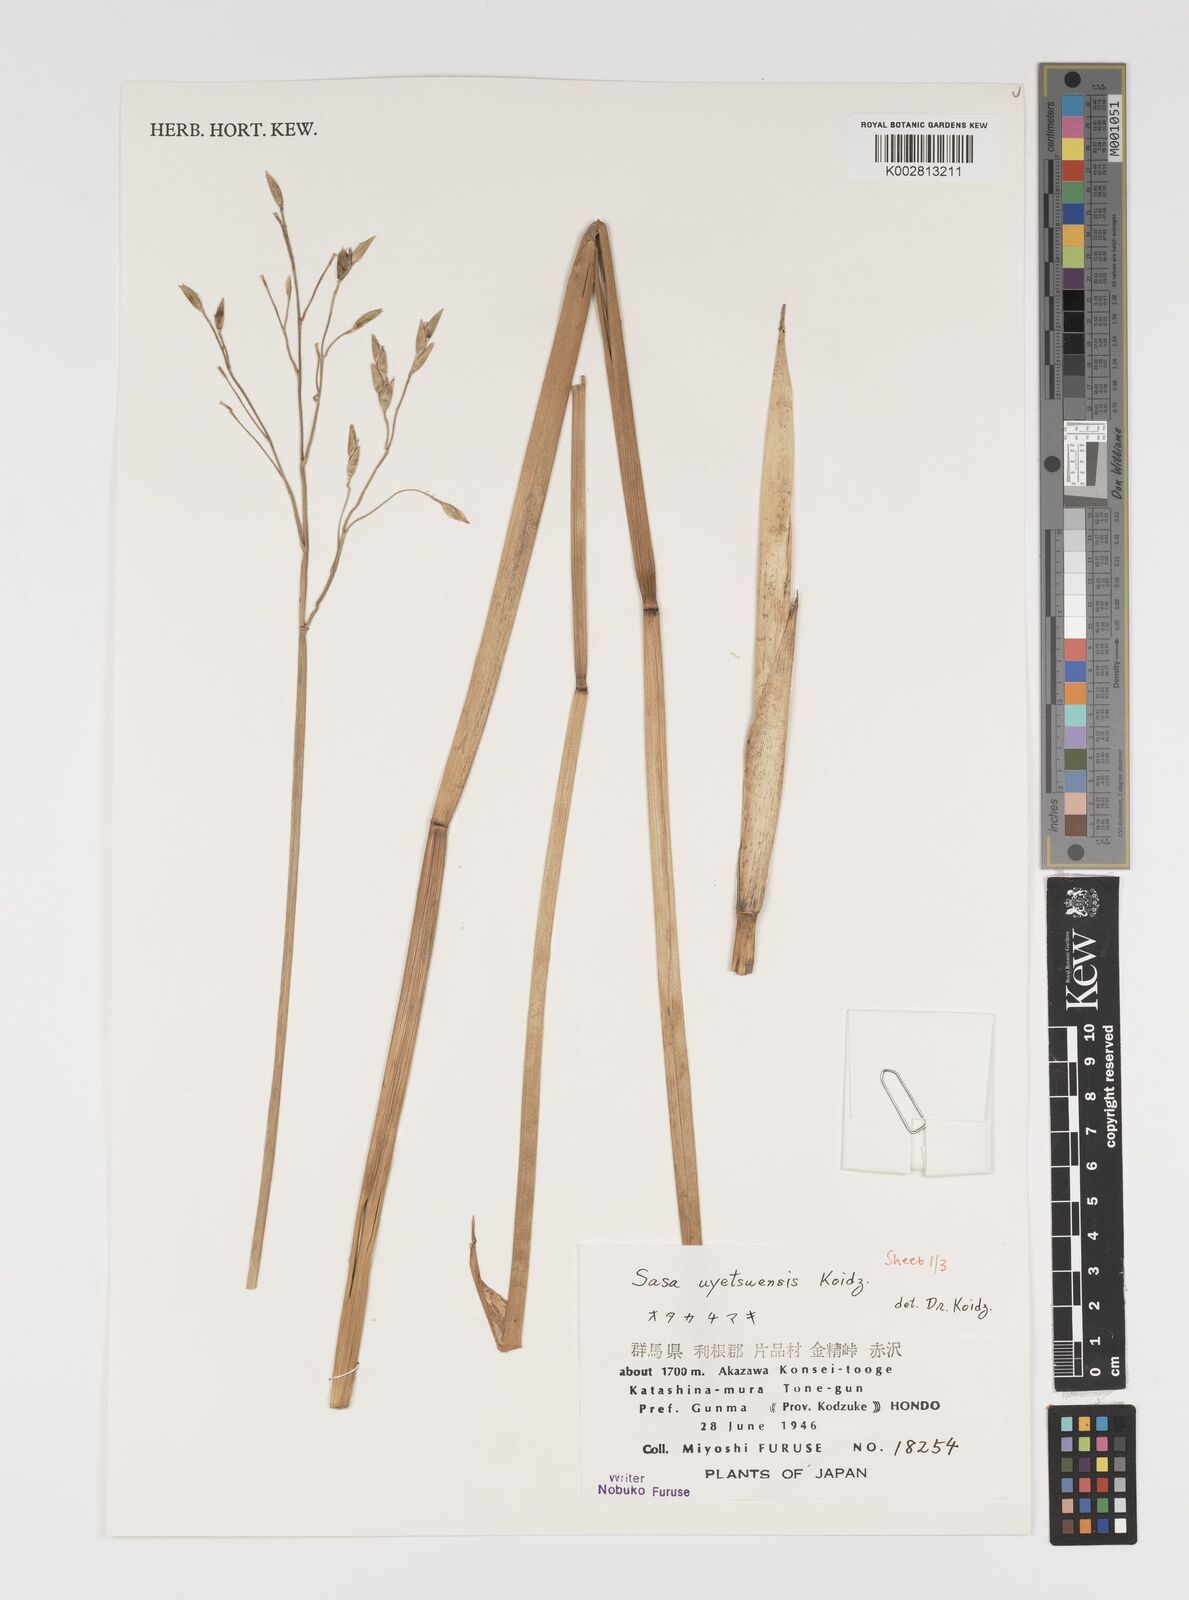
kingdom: Plantae
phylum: Tracheophyta
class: Liliopsida
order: Poales
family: Poaceae
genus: Sasa
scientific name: Sasa senanensis
